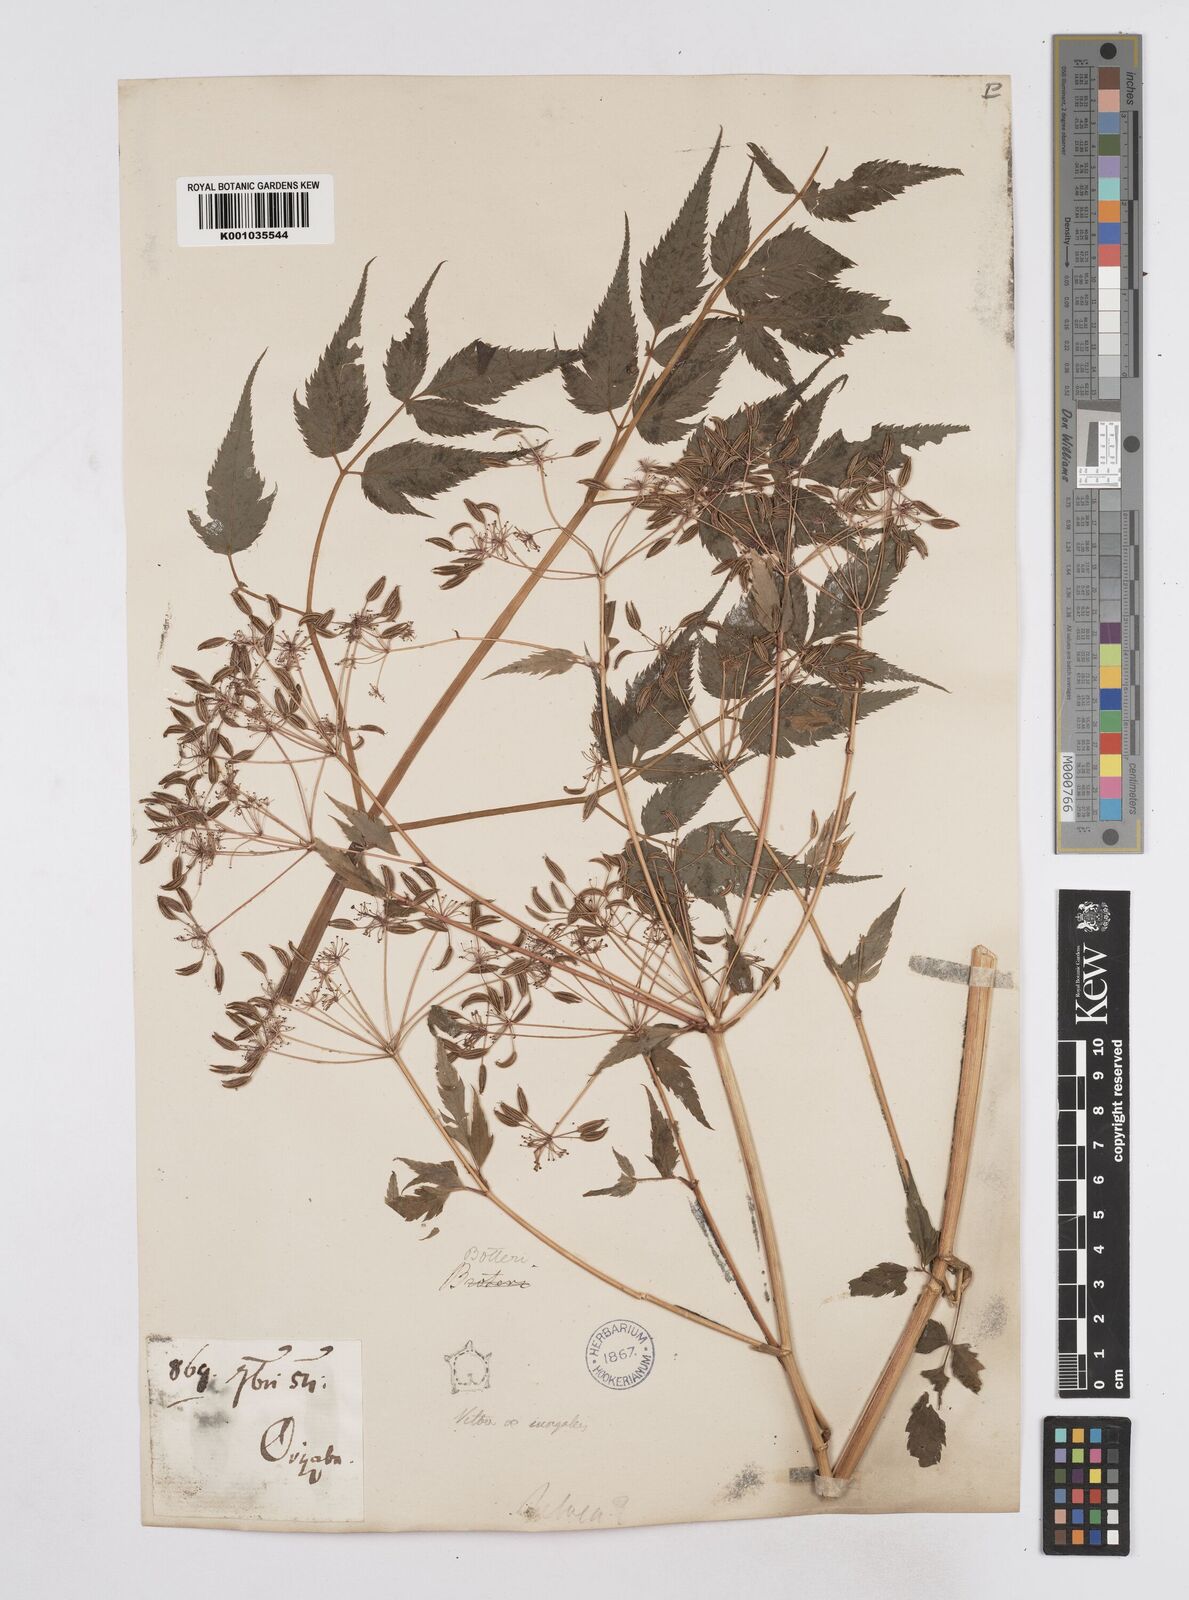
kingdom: Plantae
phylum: Tracheophyta
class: Magnoliopsida
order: Apiales
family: Apiaceae
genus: Arracacia
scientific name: Arracacia hemsleyana
